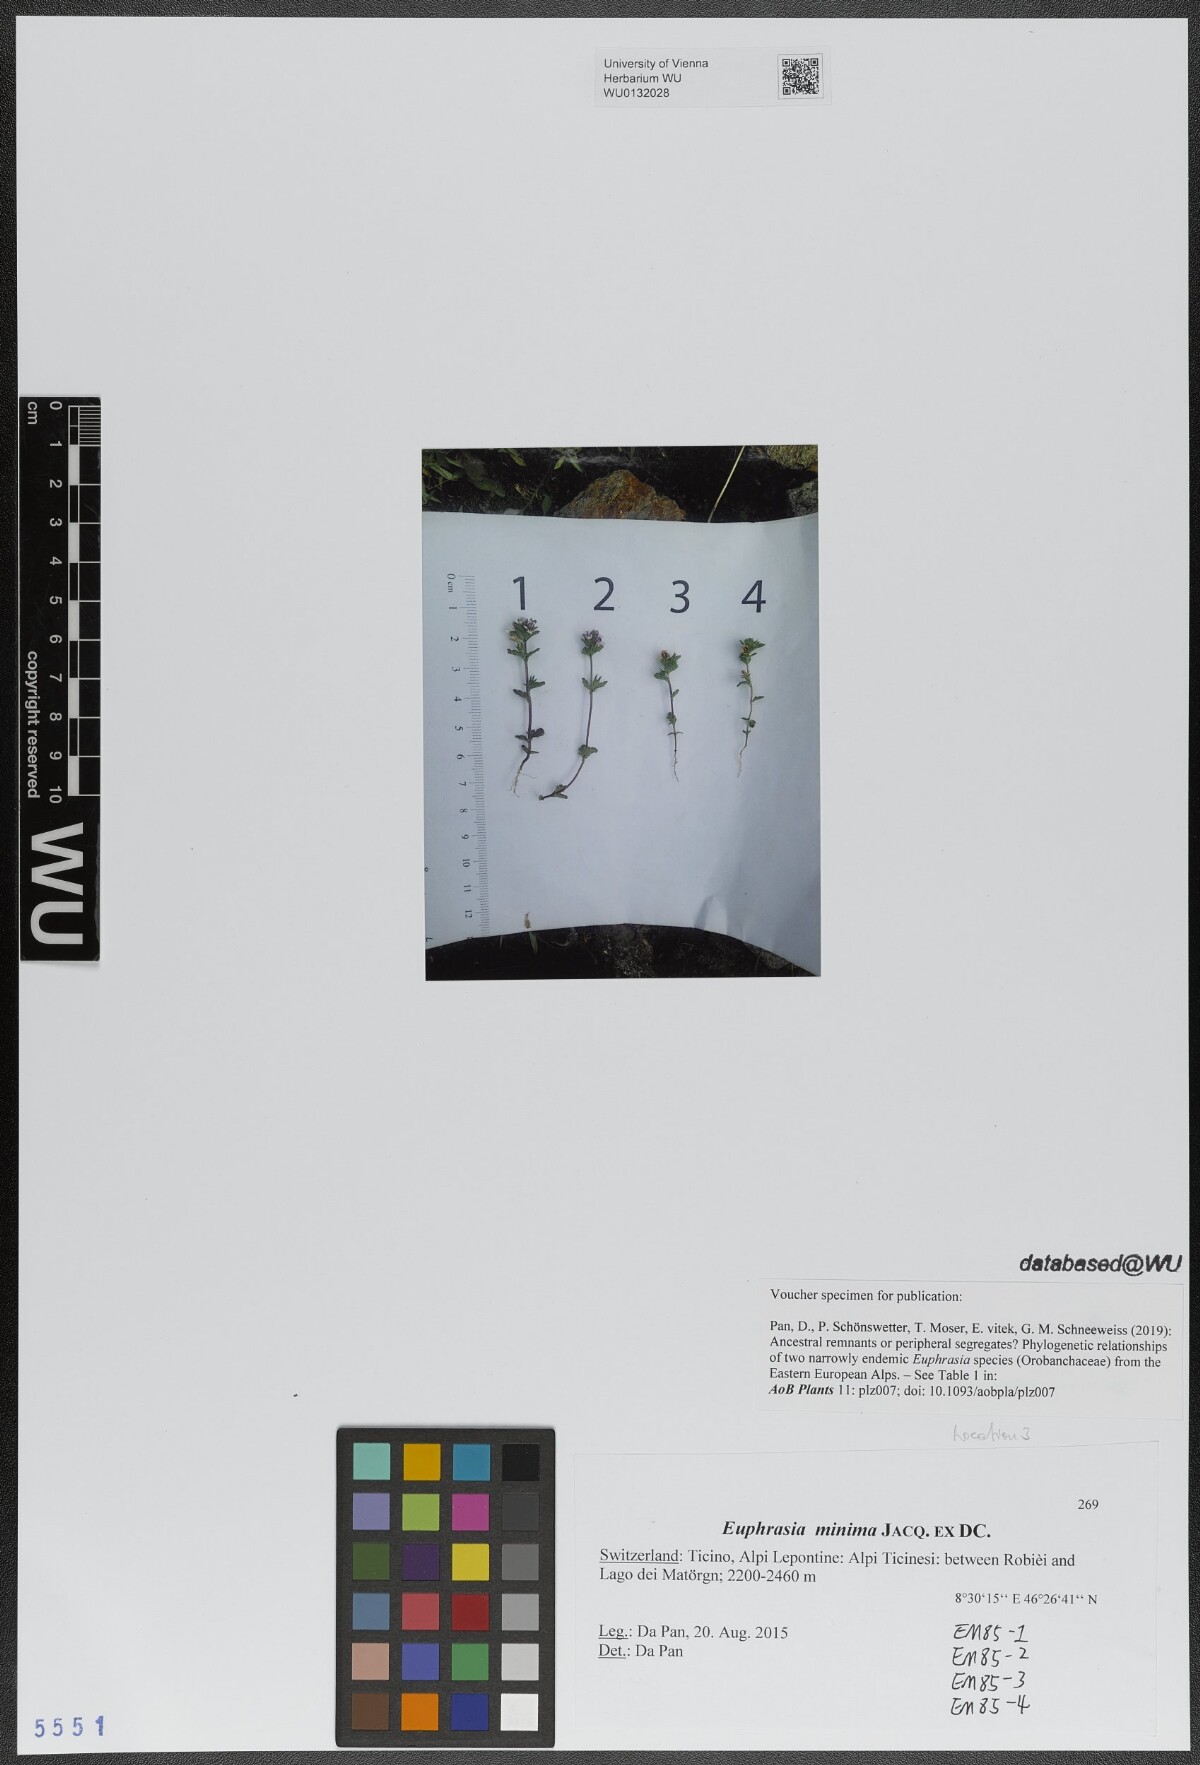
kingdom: Plantae
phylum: Tracheophyta
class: Magnoliopsida
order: Lamiales
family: Orobanchaceae
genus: Euphrasia
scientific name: Euphrasia minima
